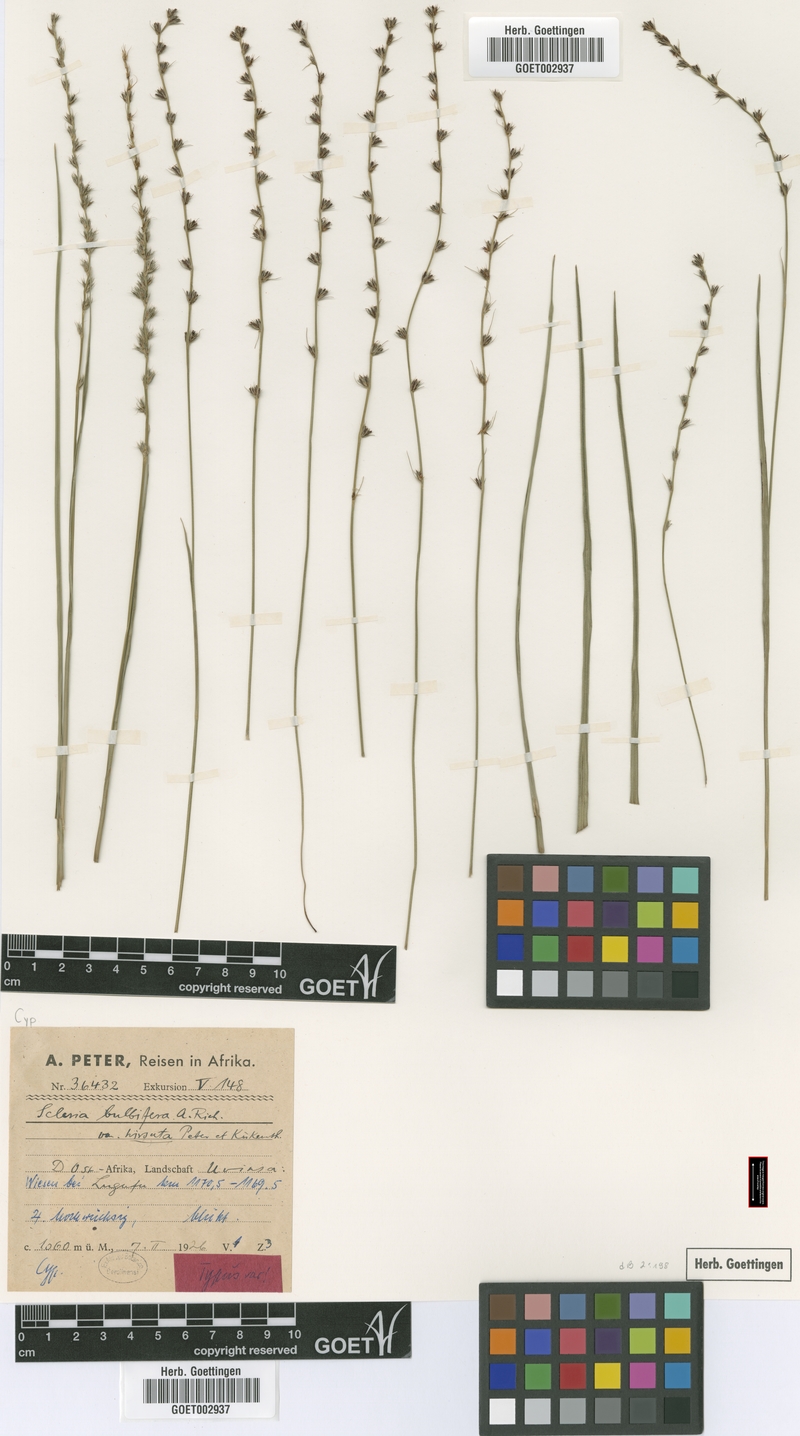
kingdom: Plantae
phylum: Tracheophyta
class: Liliopsida
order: Poales
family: Cyperaceae
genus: Scleria
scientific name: Scleria bulbifera
